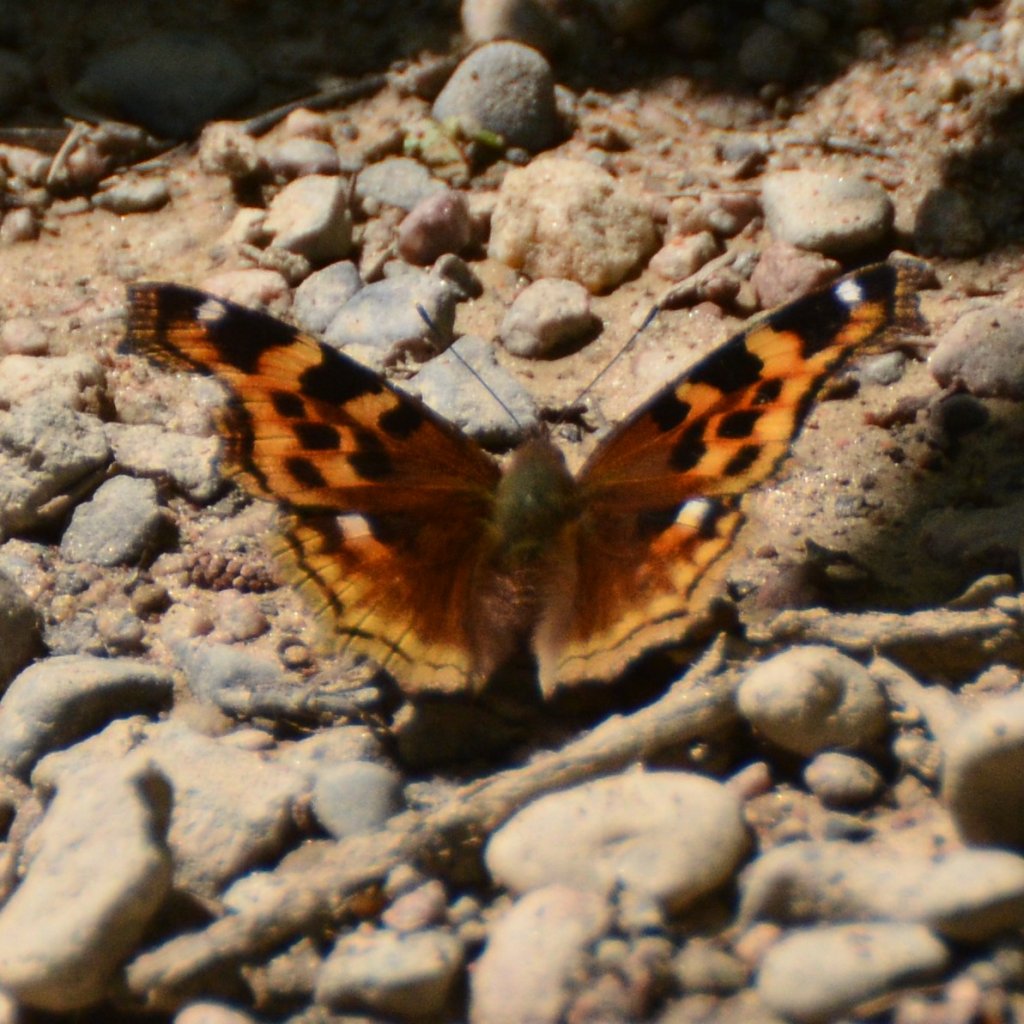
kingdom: Animalia
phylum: Arthropoda
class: Insecta
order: Lepidoptera
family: Nymphalidae
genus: Polygonia
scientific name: Polygonia vaualbum
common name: Compton Tortoiseshell
